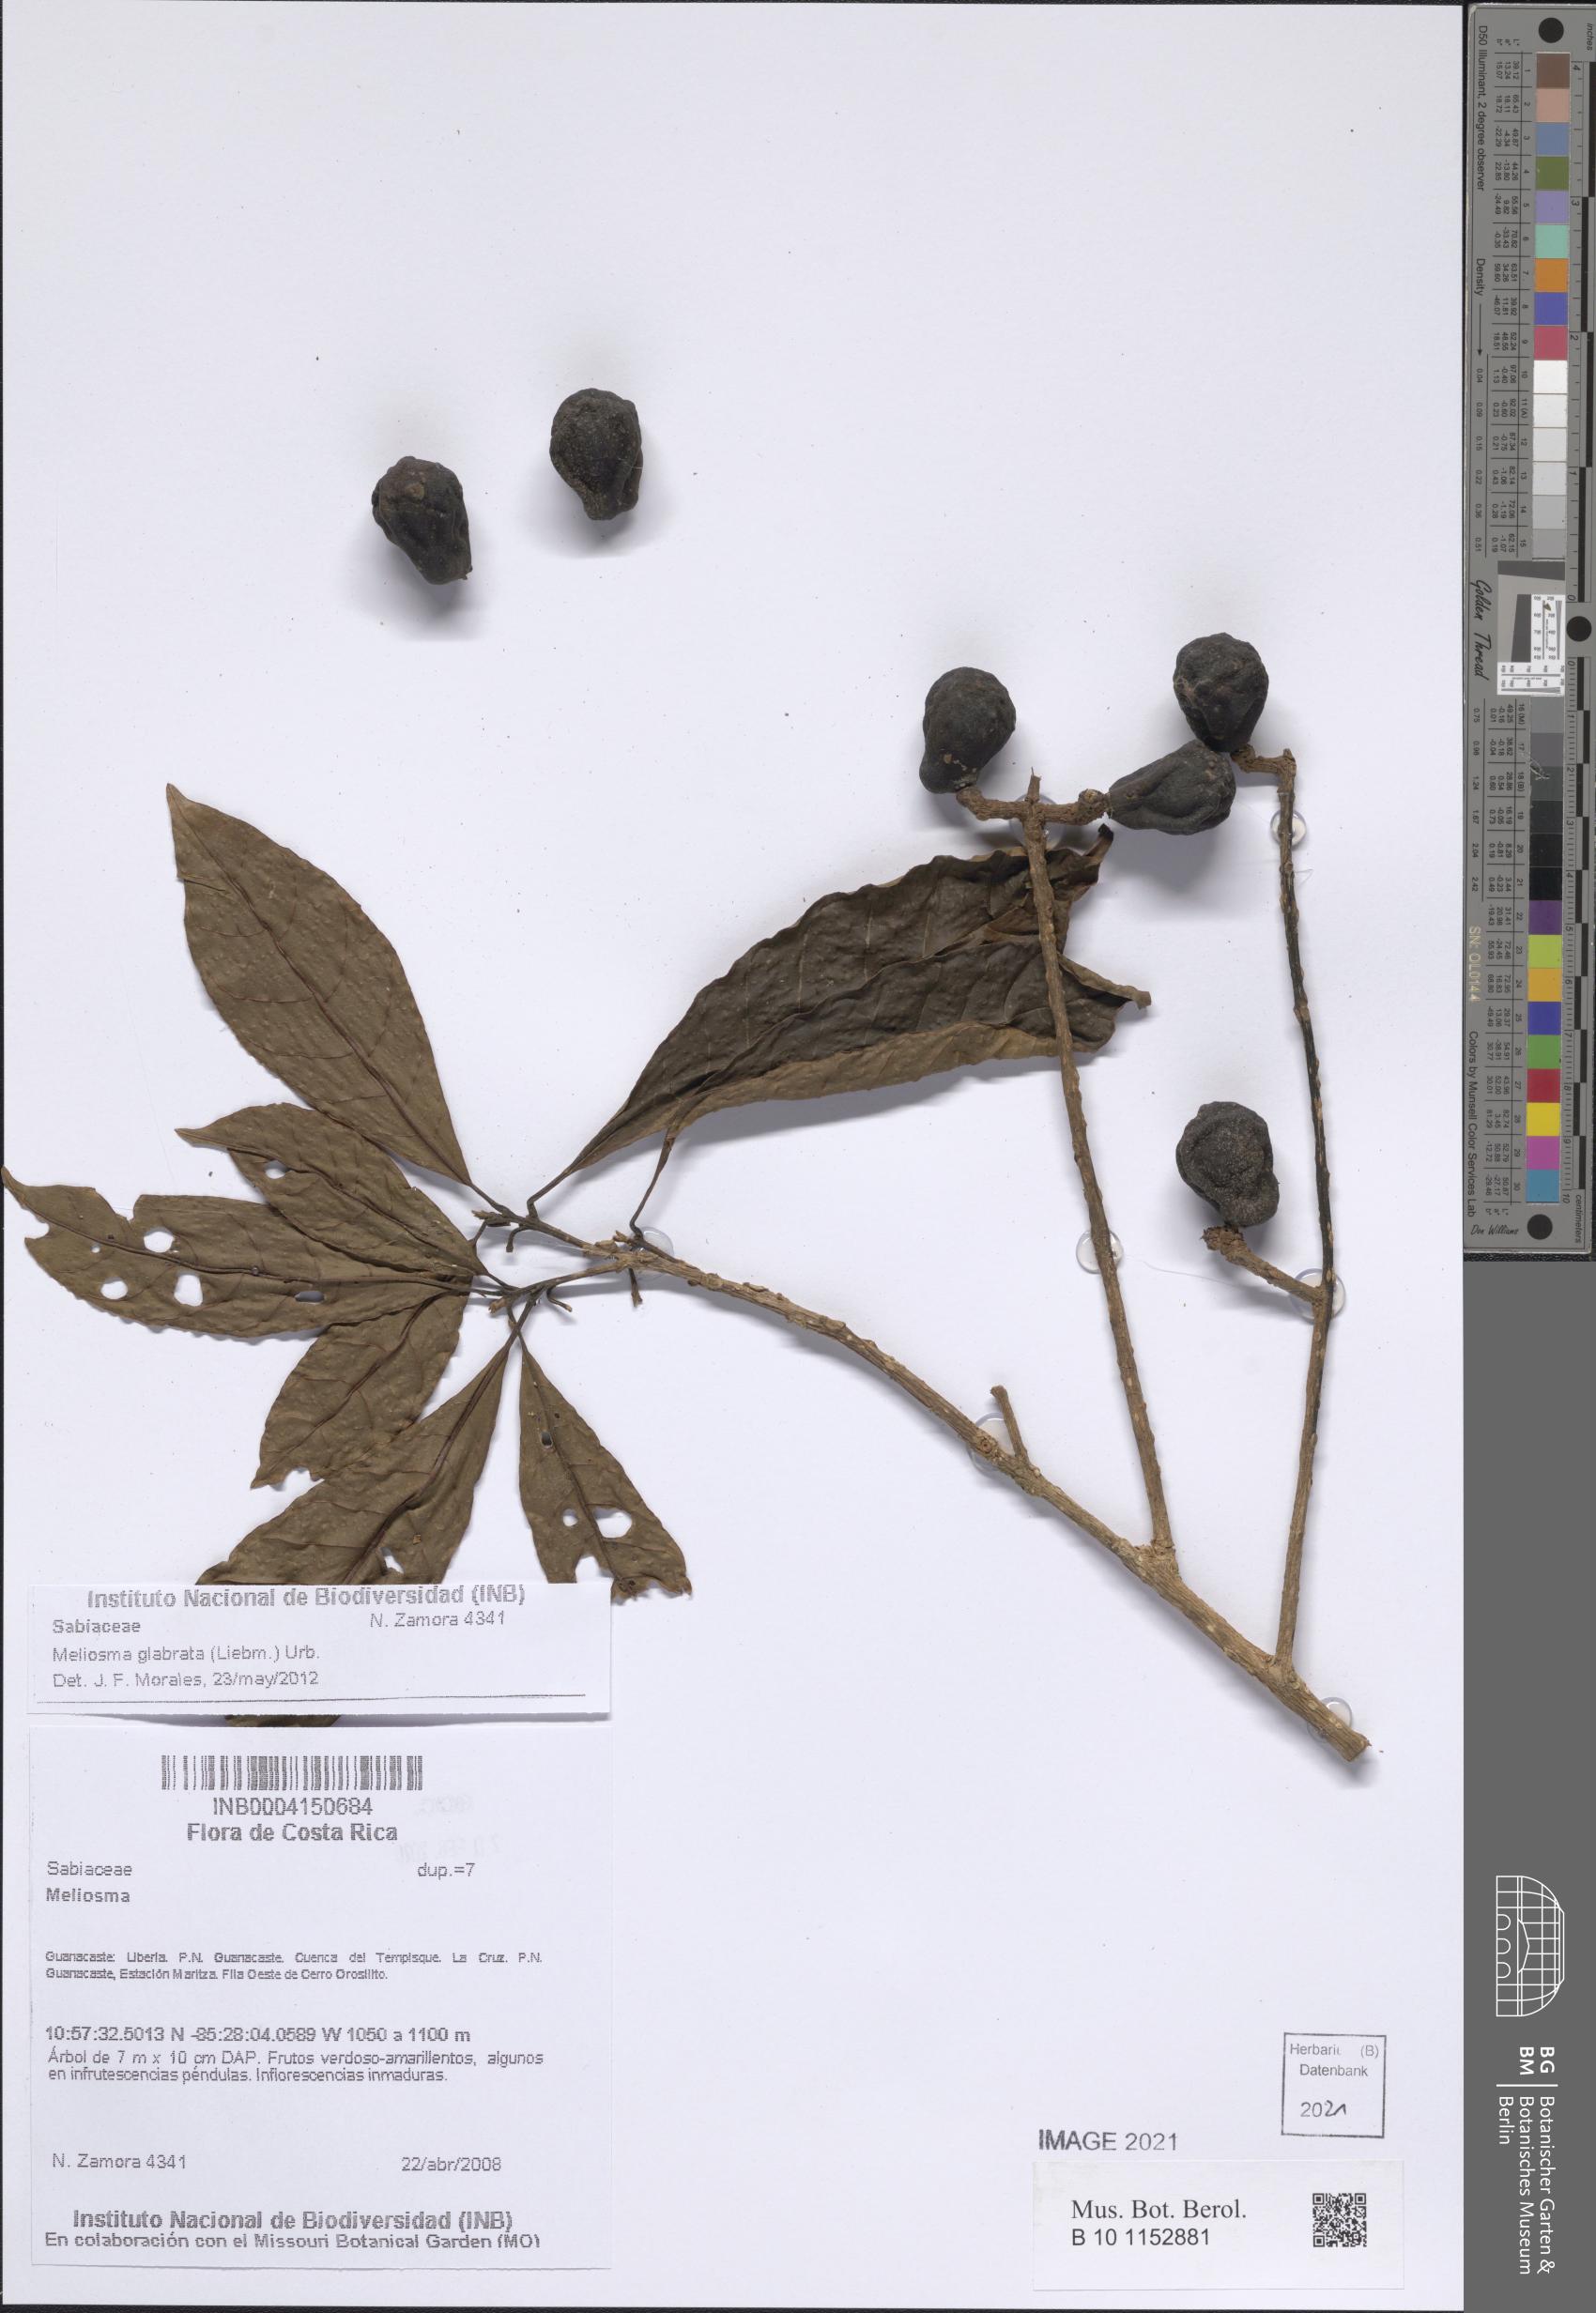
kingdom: Plantae
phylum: Tracheophyta
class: Magnoliopsida
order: Proteales
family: Sabiaceae
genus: Meliosma
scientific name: Meliosma glabrata
